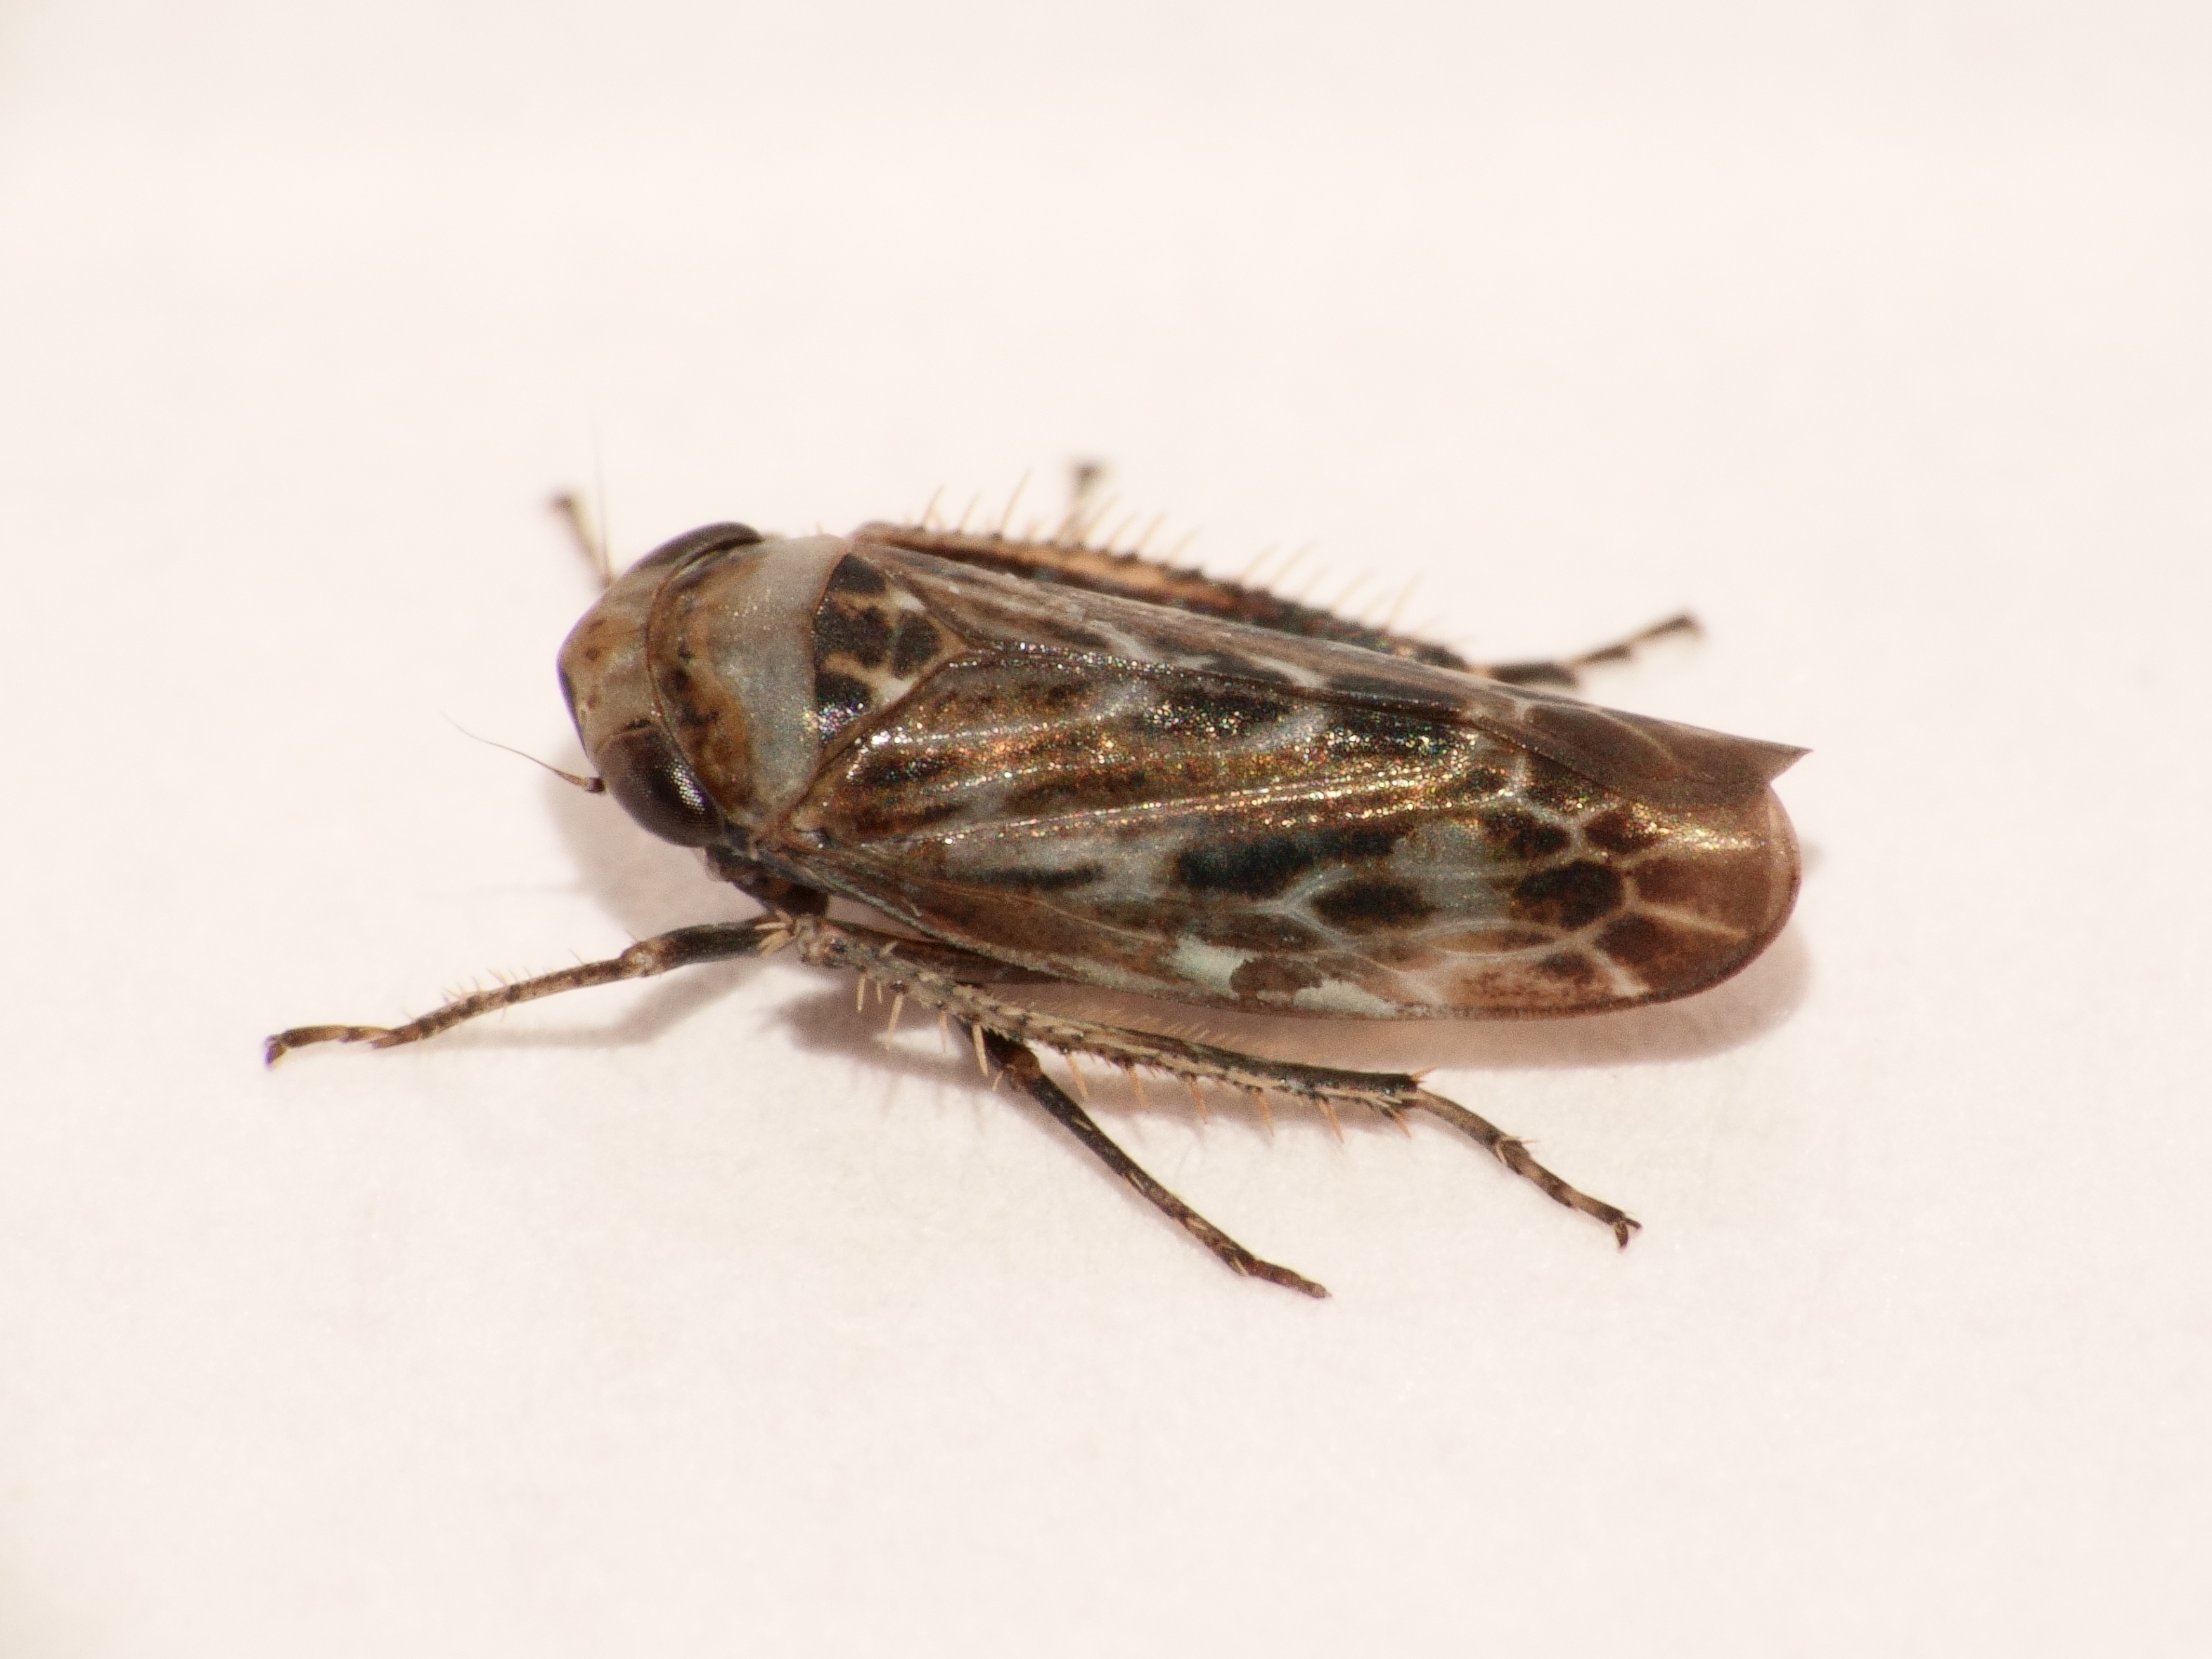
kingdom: Animalia
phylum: Arthropoda
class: Insecta
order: Hemiptera
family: Cicadellidae
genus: Pithyotettix
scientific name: Pithyotettix pictus
